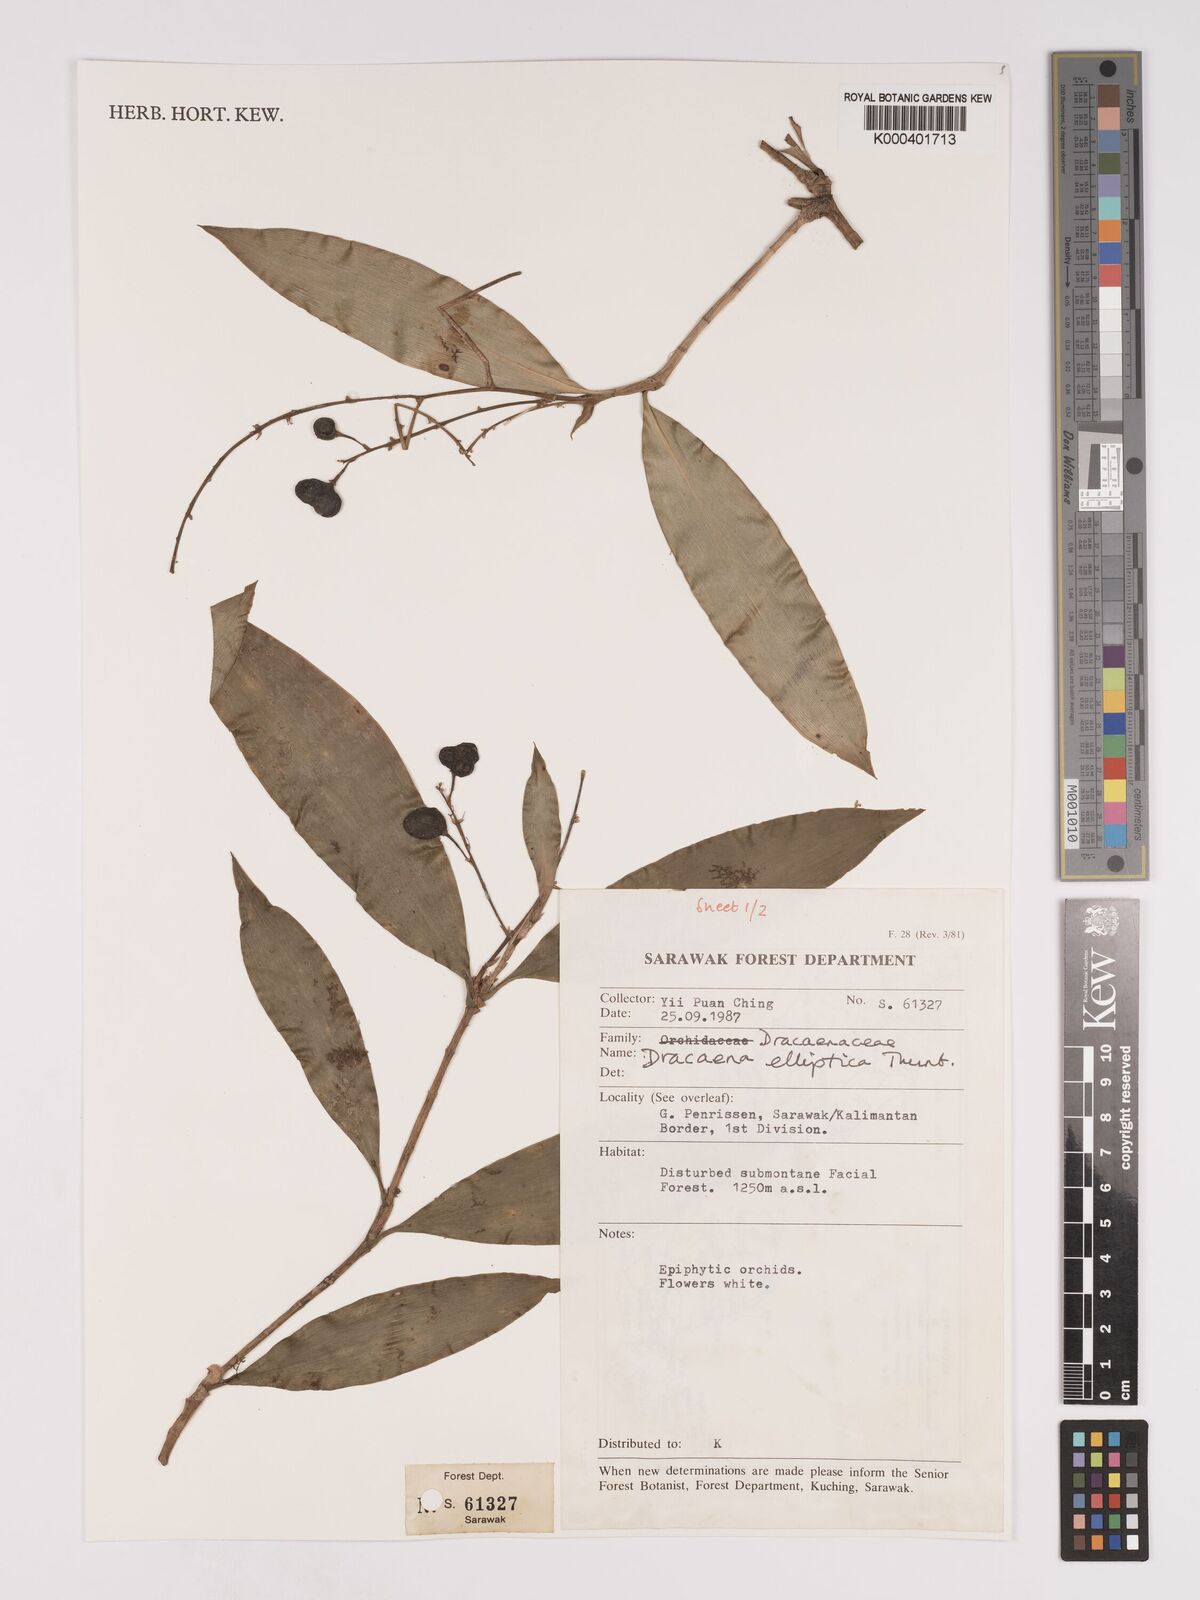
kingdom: Plantae
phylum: Tracheophyta
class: Liliopsida
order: Asparagales
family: Asparagaceae
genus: Dracaena
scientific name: Dracaena elliptica
